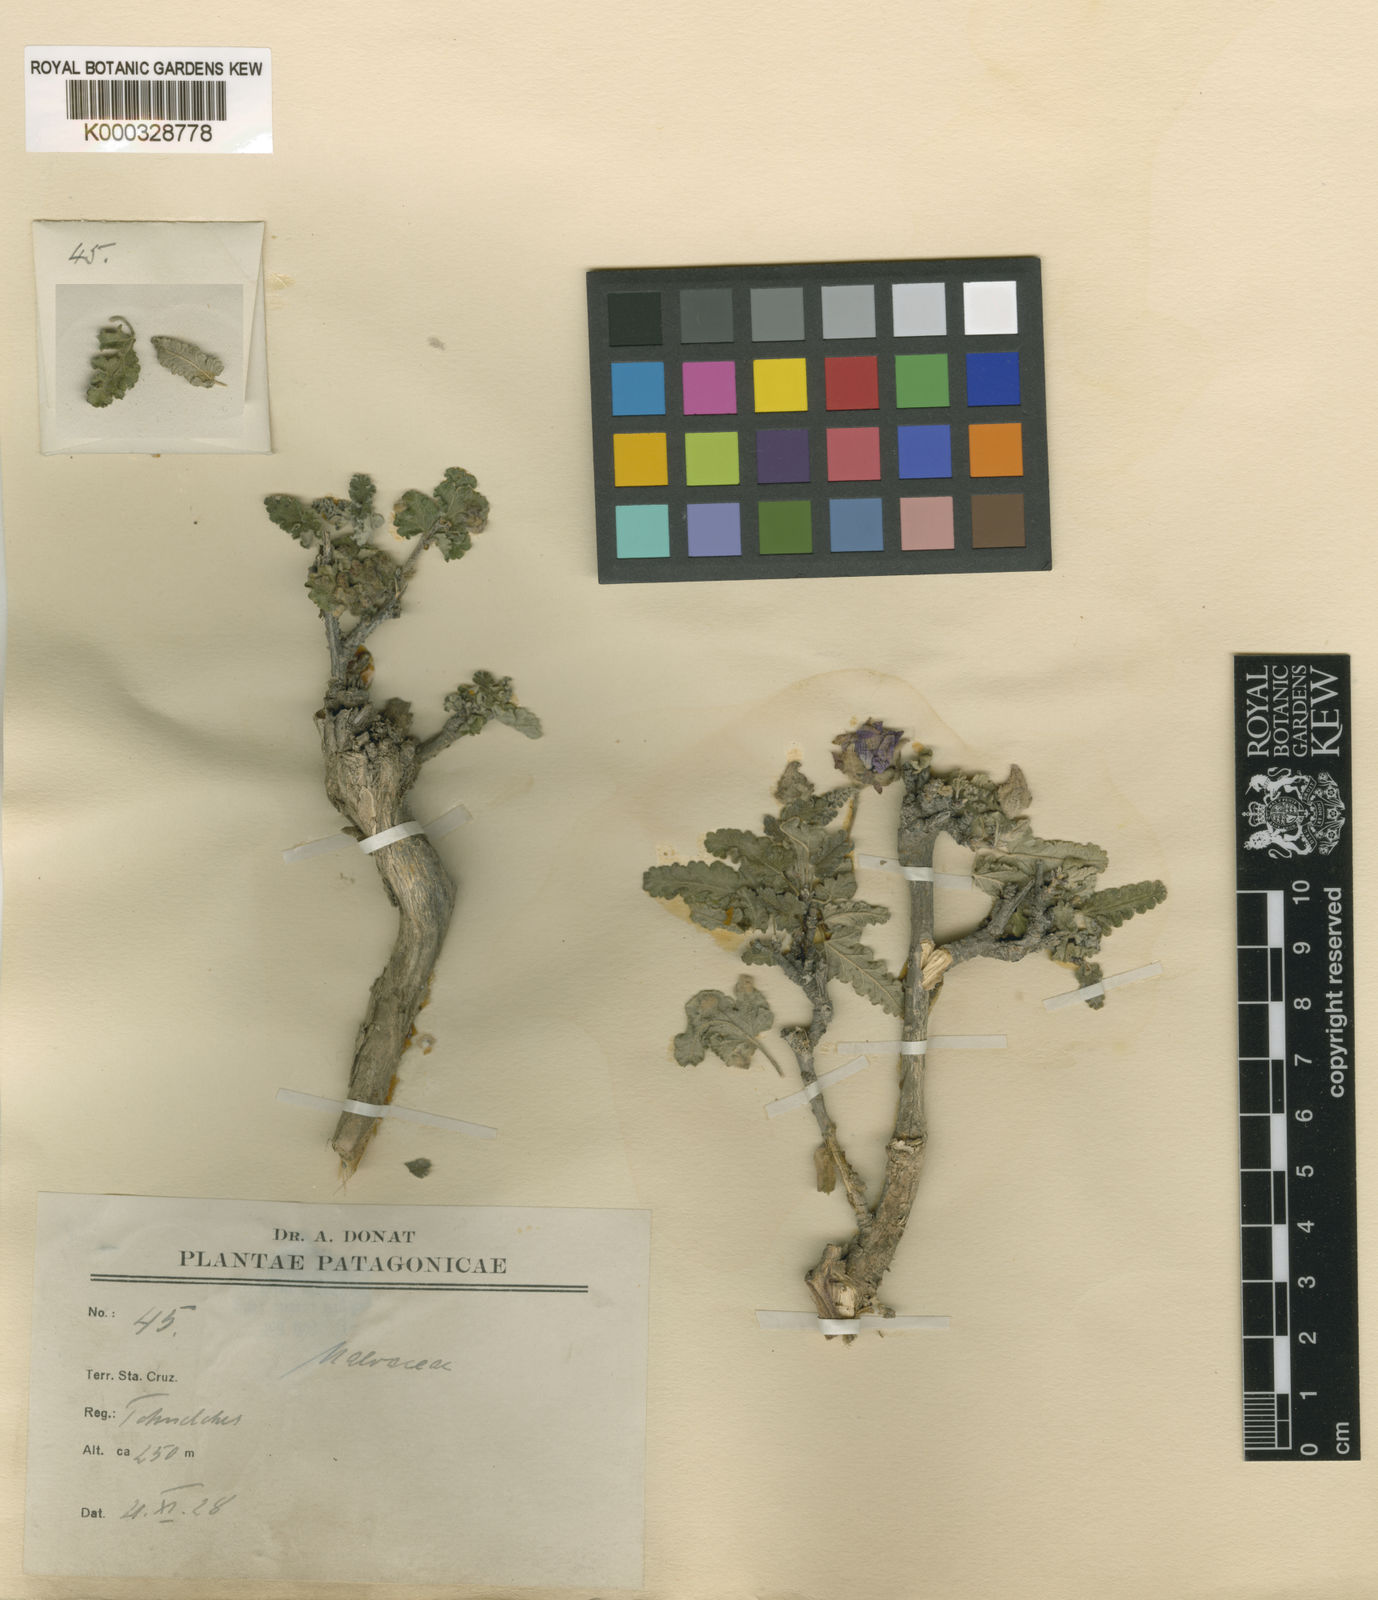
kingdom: Plantae
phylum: Tracheophyta
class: Magnoliopsida
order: Malvales
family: Malvaceae
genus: Neobaclea
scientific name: Neobaclea crispifolia
